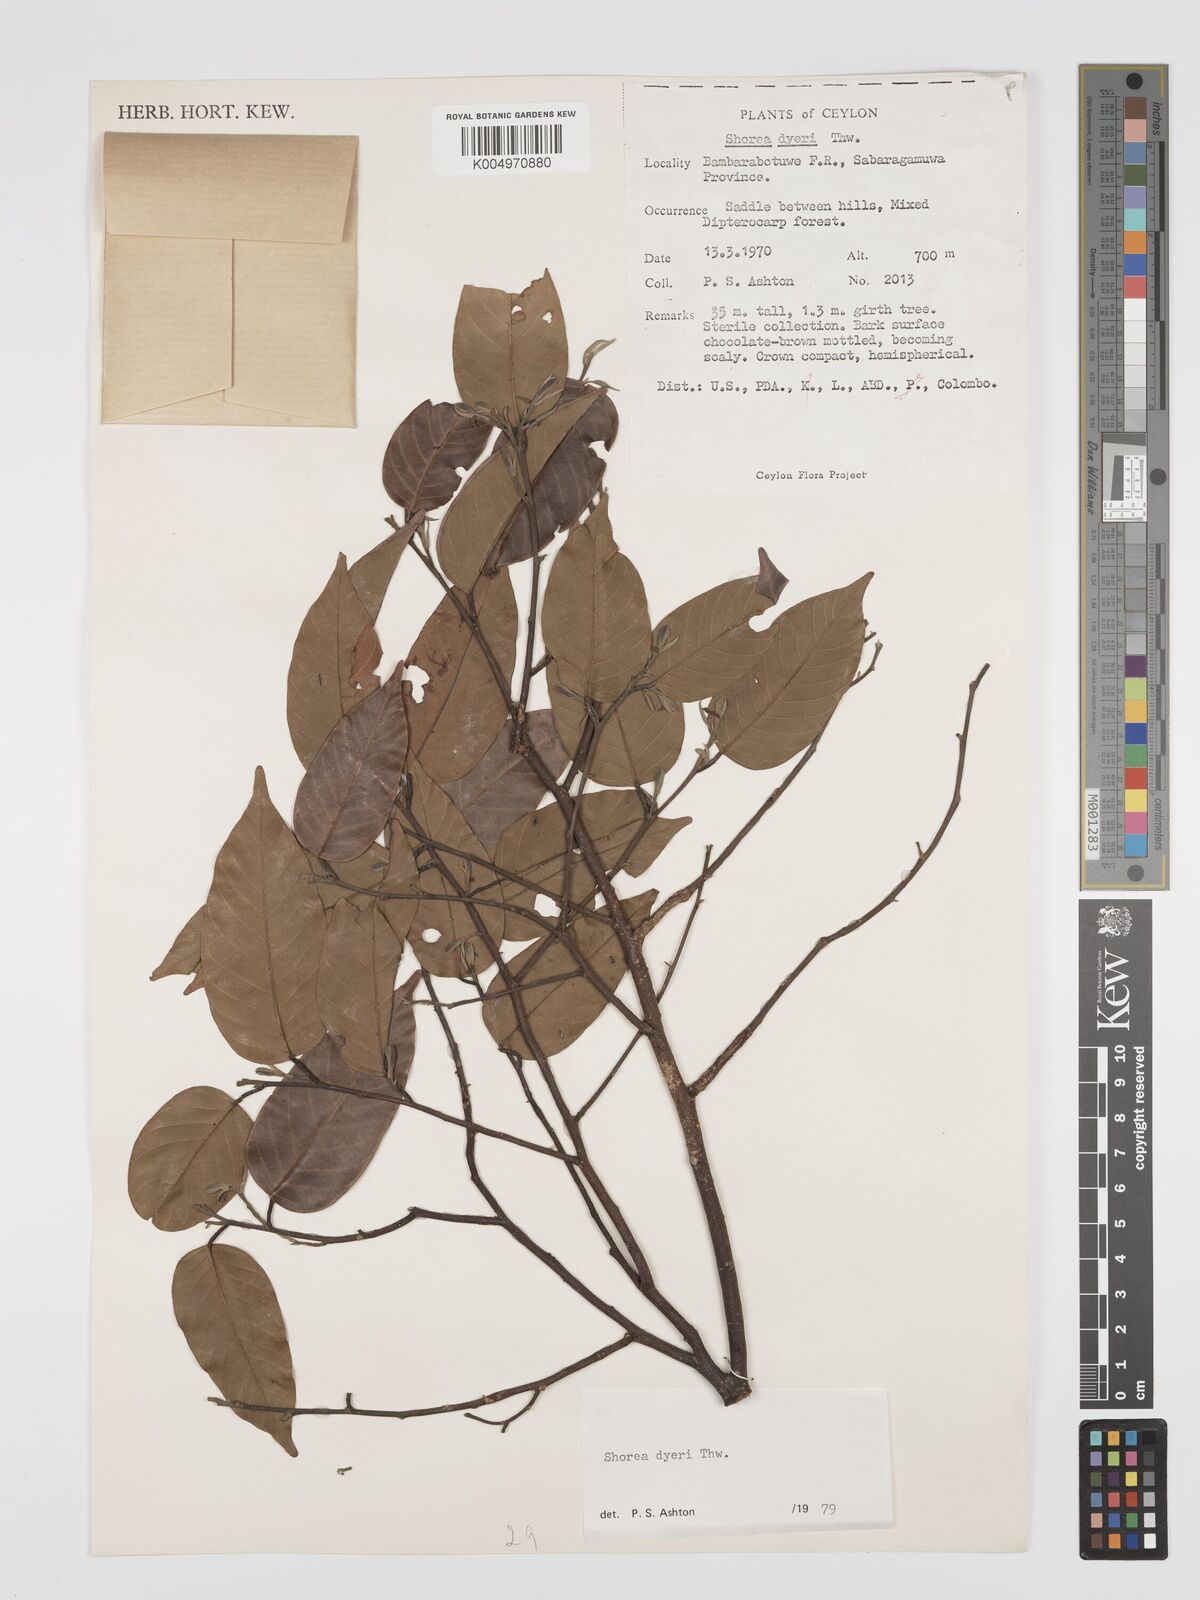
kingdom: Plantae
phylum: Tracheophyta
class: Magnoliopsida
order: Malvales
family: Dipterocarpaceae
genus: Shorea
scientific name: Shorea dyeri
